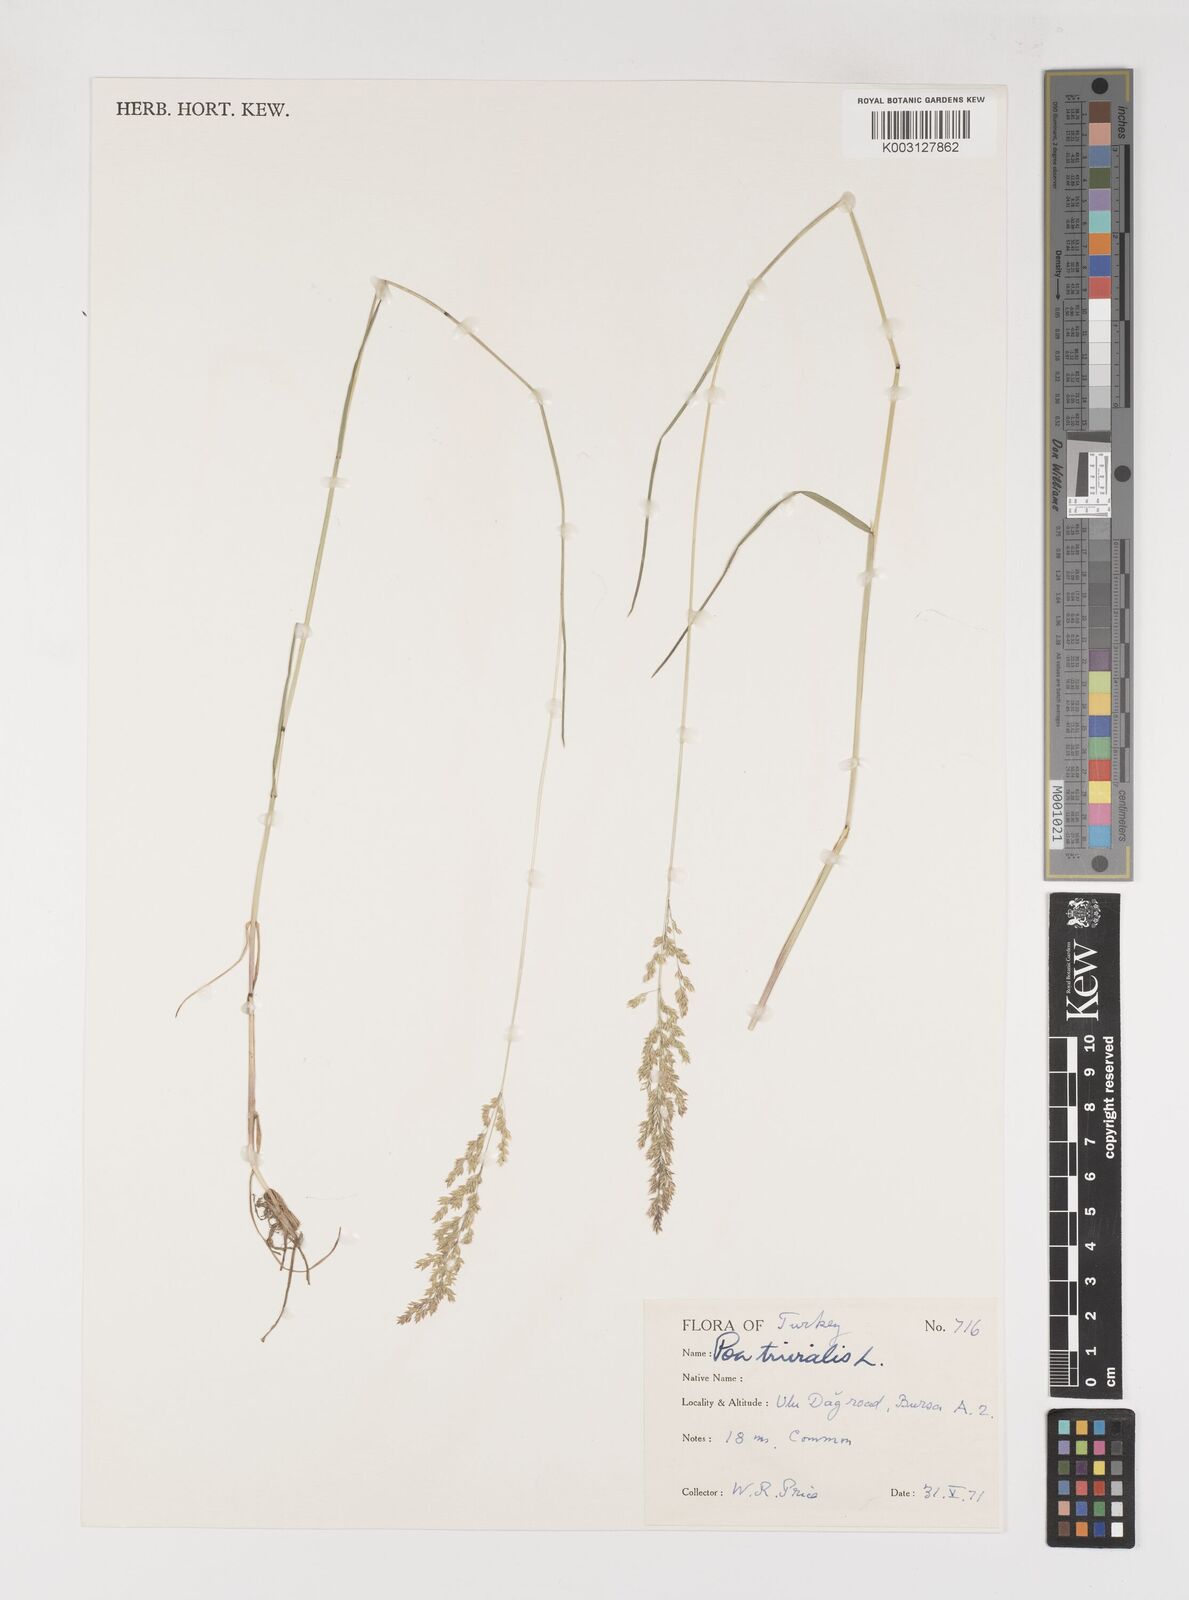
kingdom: Plantae
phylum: Tracheophyta
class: Liliopsida
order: Poales
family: Poaceae
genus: Poa
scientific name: Poa trivialis
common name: Rough bluegrass
